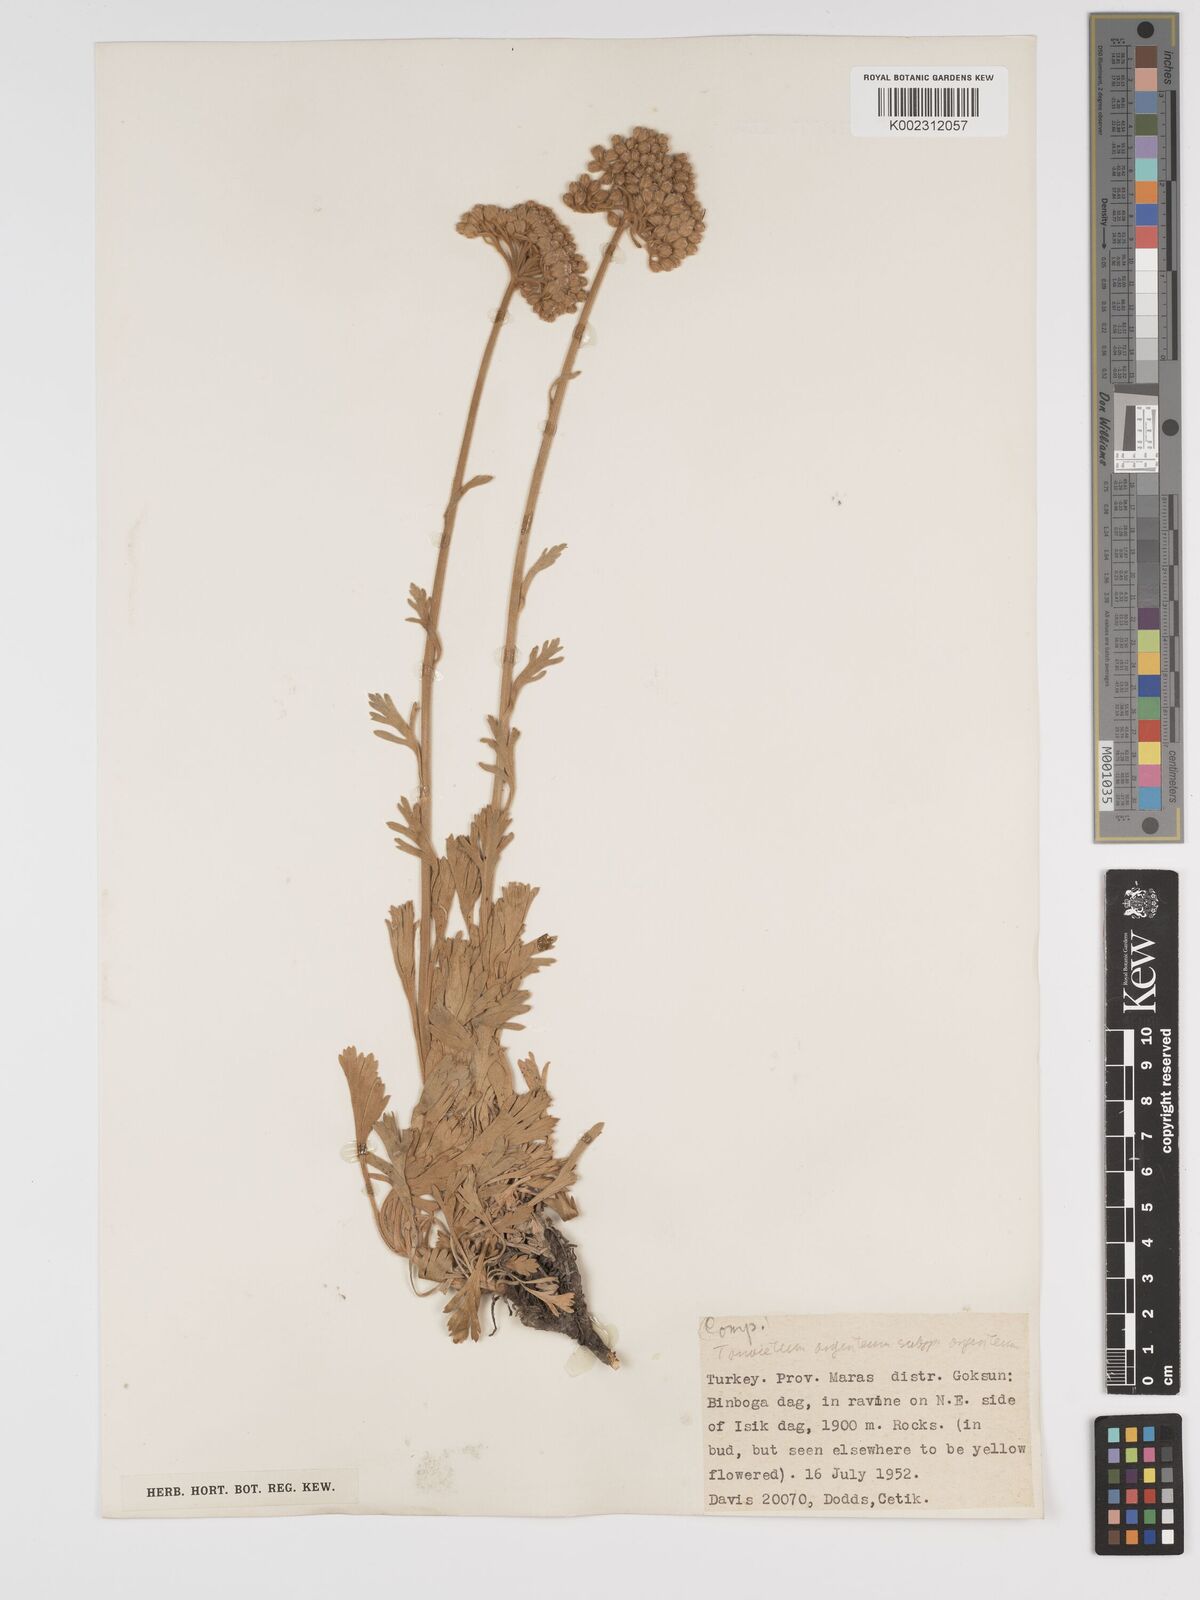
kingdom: Plantae
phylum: Tracheophyta
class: Magnoliopsida
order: Asterales
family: Asteraceae
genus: Tanacetum
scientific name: Tanacetum argenteum
